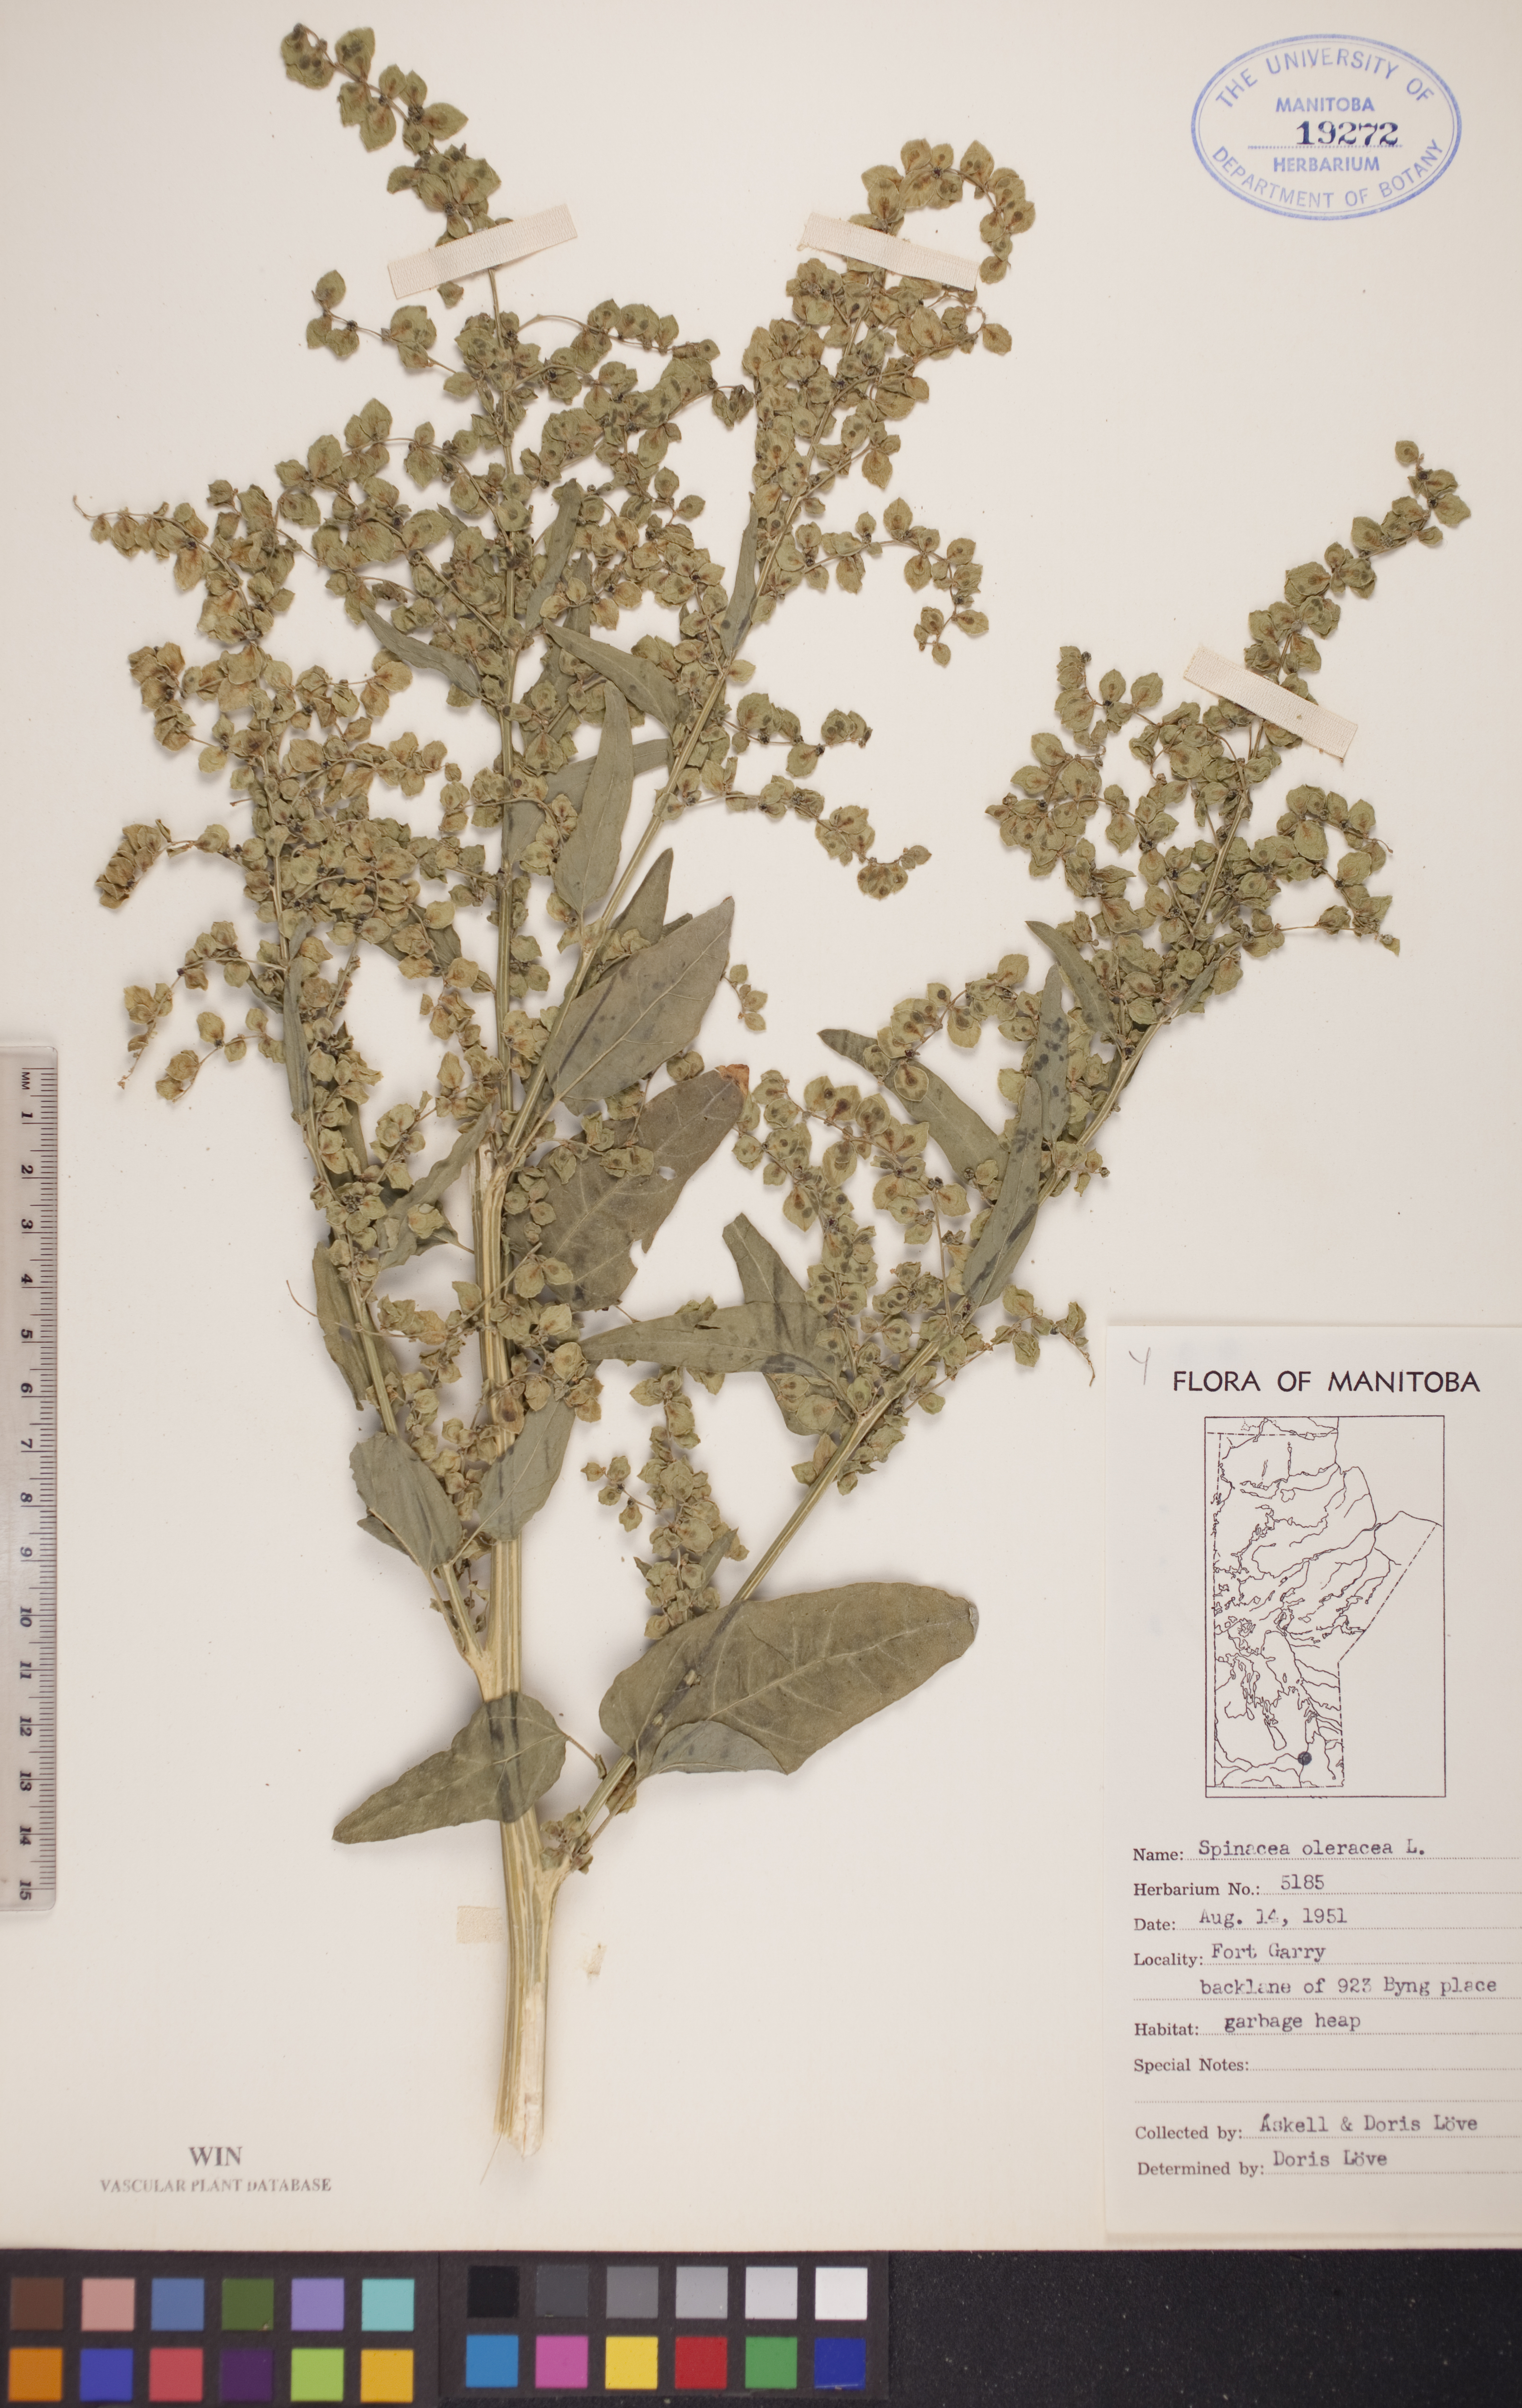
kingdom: Plantae
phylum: Tracheophyta
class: Magnoliopsida
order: Caryophyllales
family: Amaranthaceae
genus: Spinacia
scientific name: Spinacia oleracea
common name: Spinach
